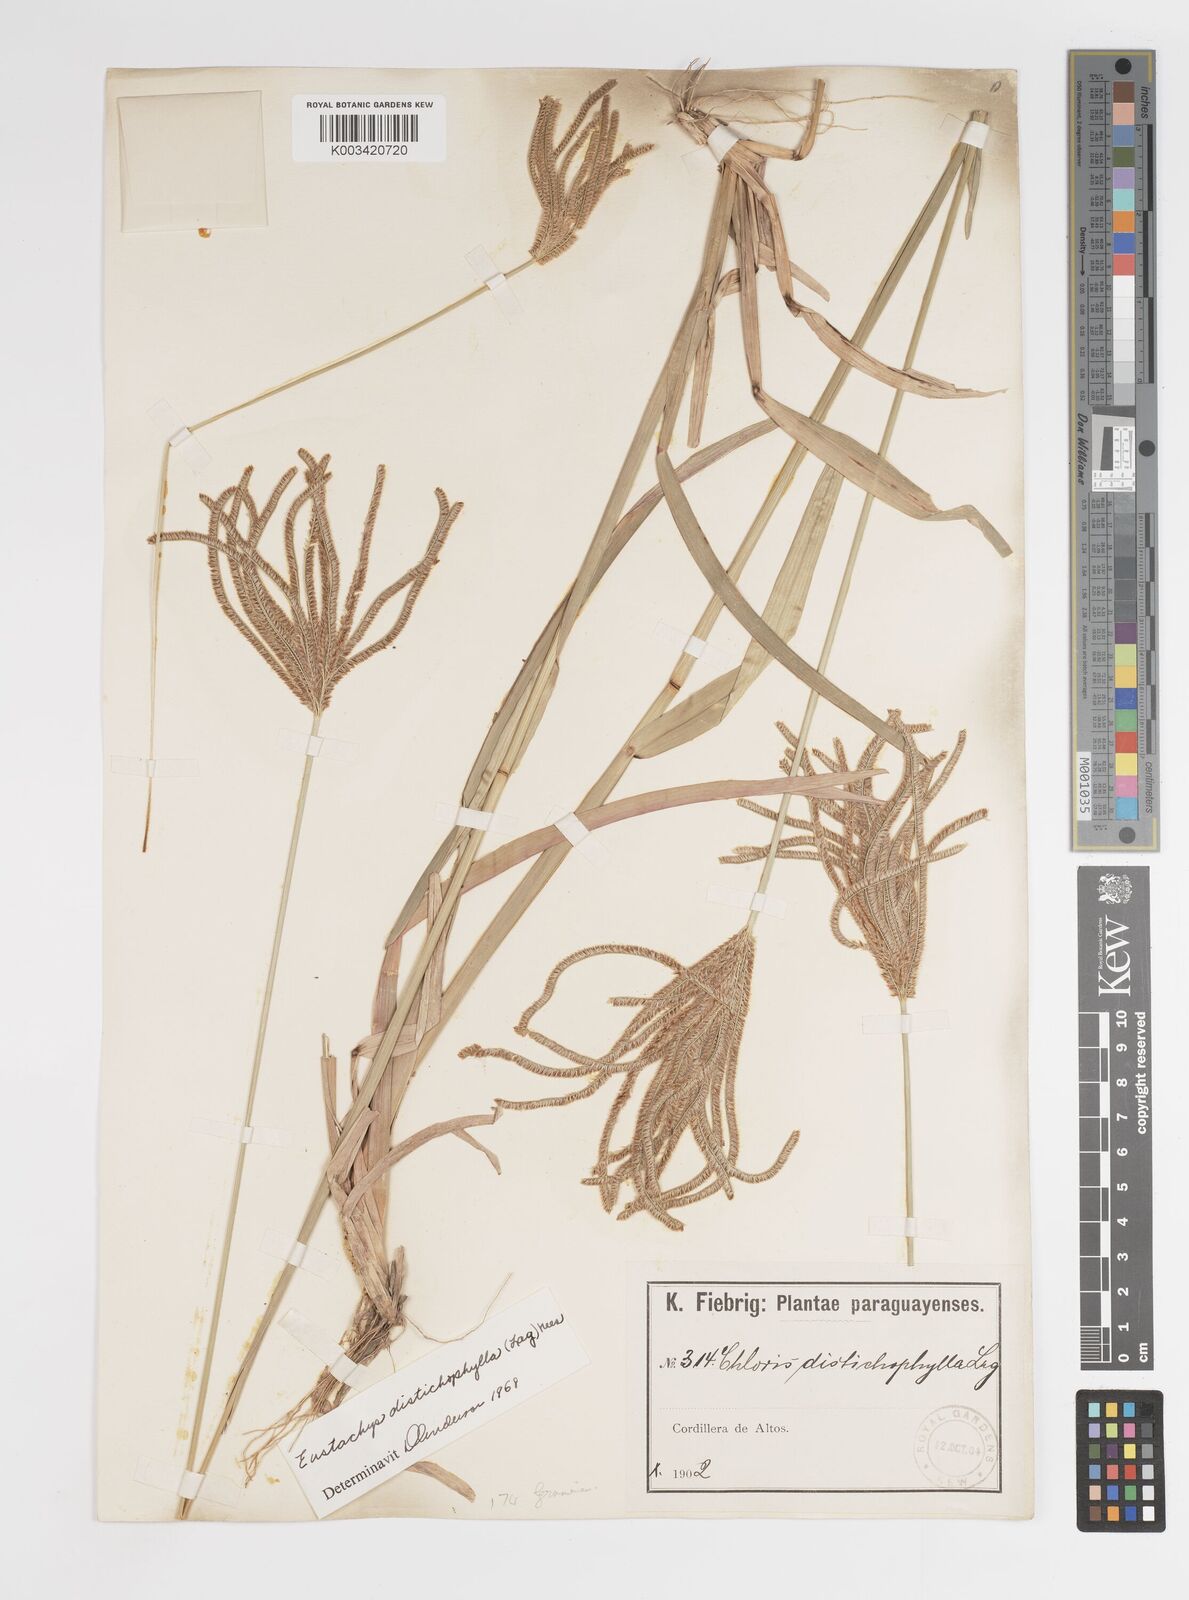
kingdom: Plantae
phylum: Tracheophyta
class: Liliopsida
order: Poales
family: Poaceae
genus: Eustachys
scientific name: Eustachys distichophylla
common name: Weeping fingergrass
